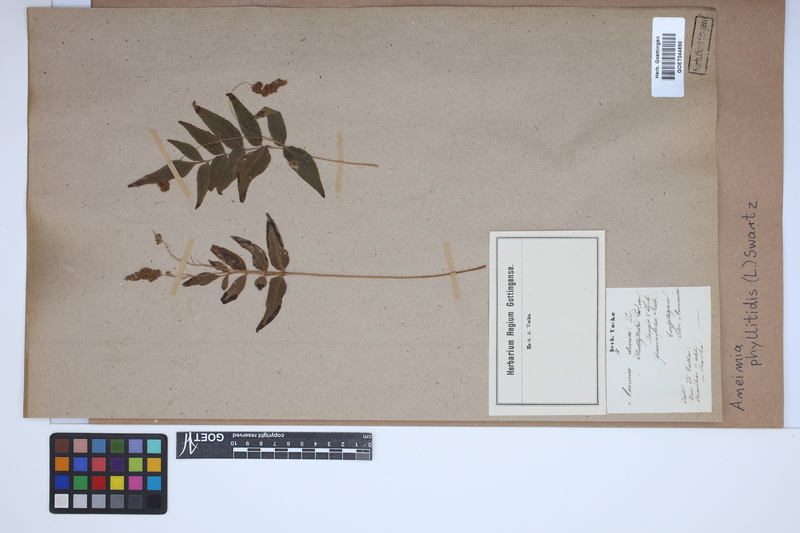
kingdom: Plantae
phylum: Tracheophyta
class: Polypodiopsida
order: Schizaeales
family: Anemiaceae
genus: Anemia
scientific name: Anemia phyllitidis
